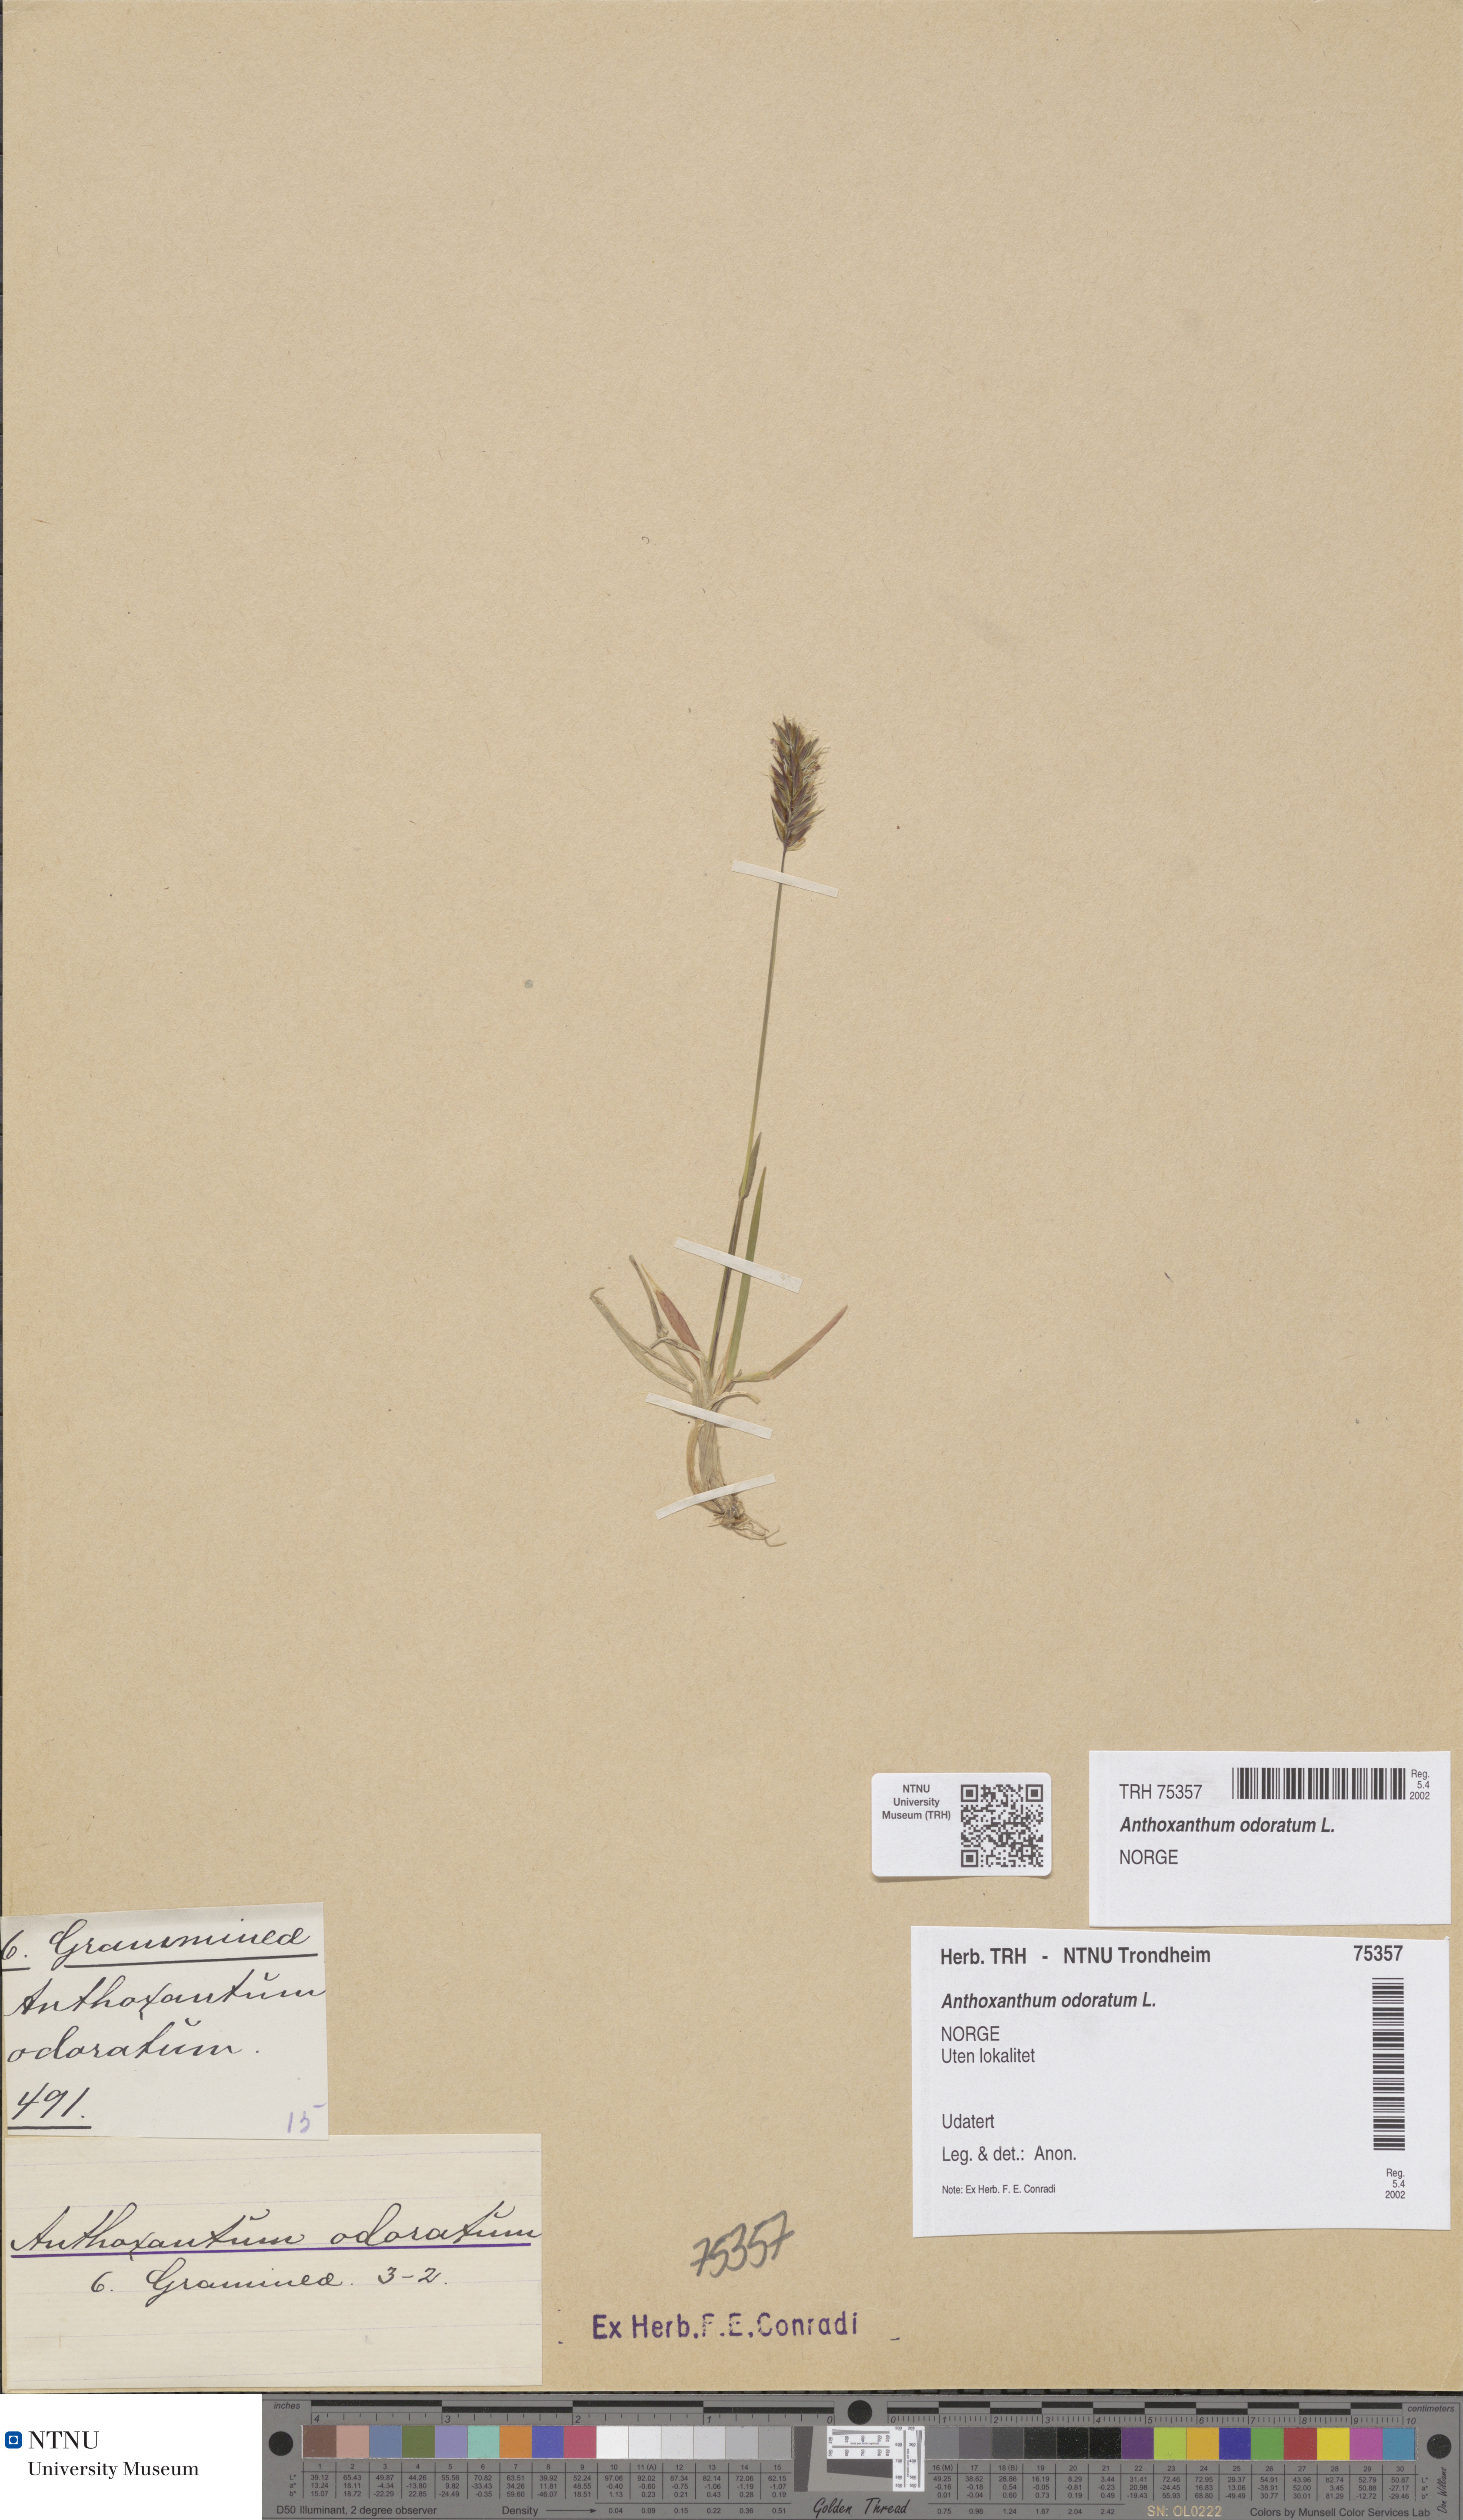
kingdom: Plantae
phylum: Tracheophyta
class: Liliopsida
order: Poales
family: Poaceae
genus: Anthoxanthum
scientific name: Anthoxanthum odoratum
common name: Sweet vernalgrass
